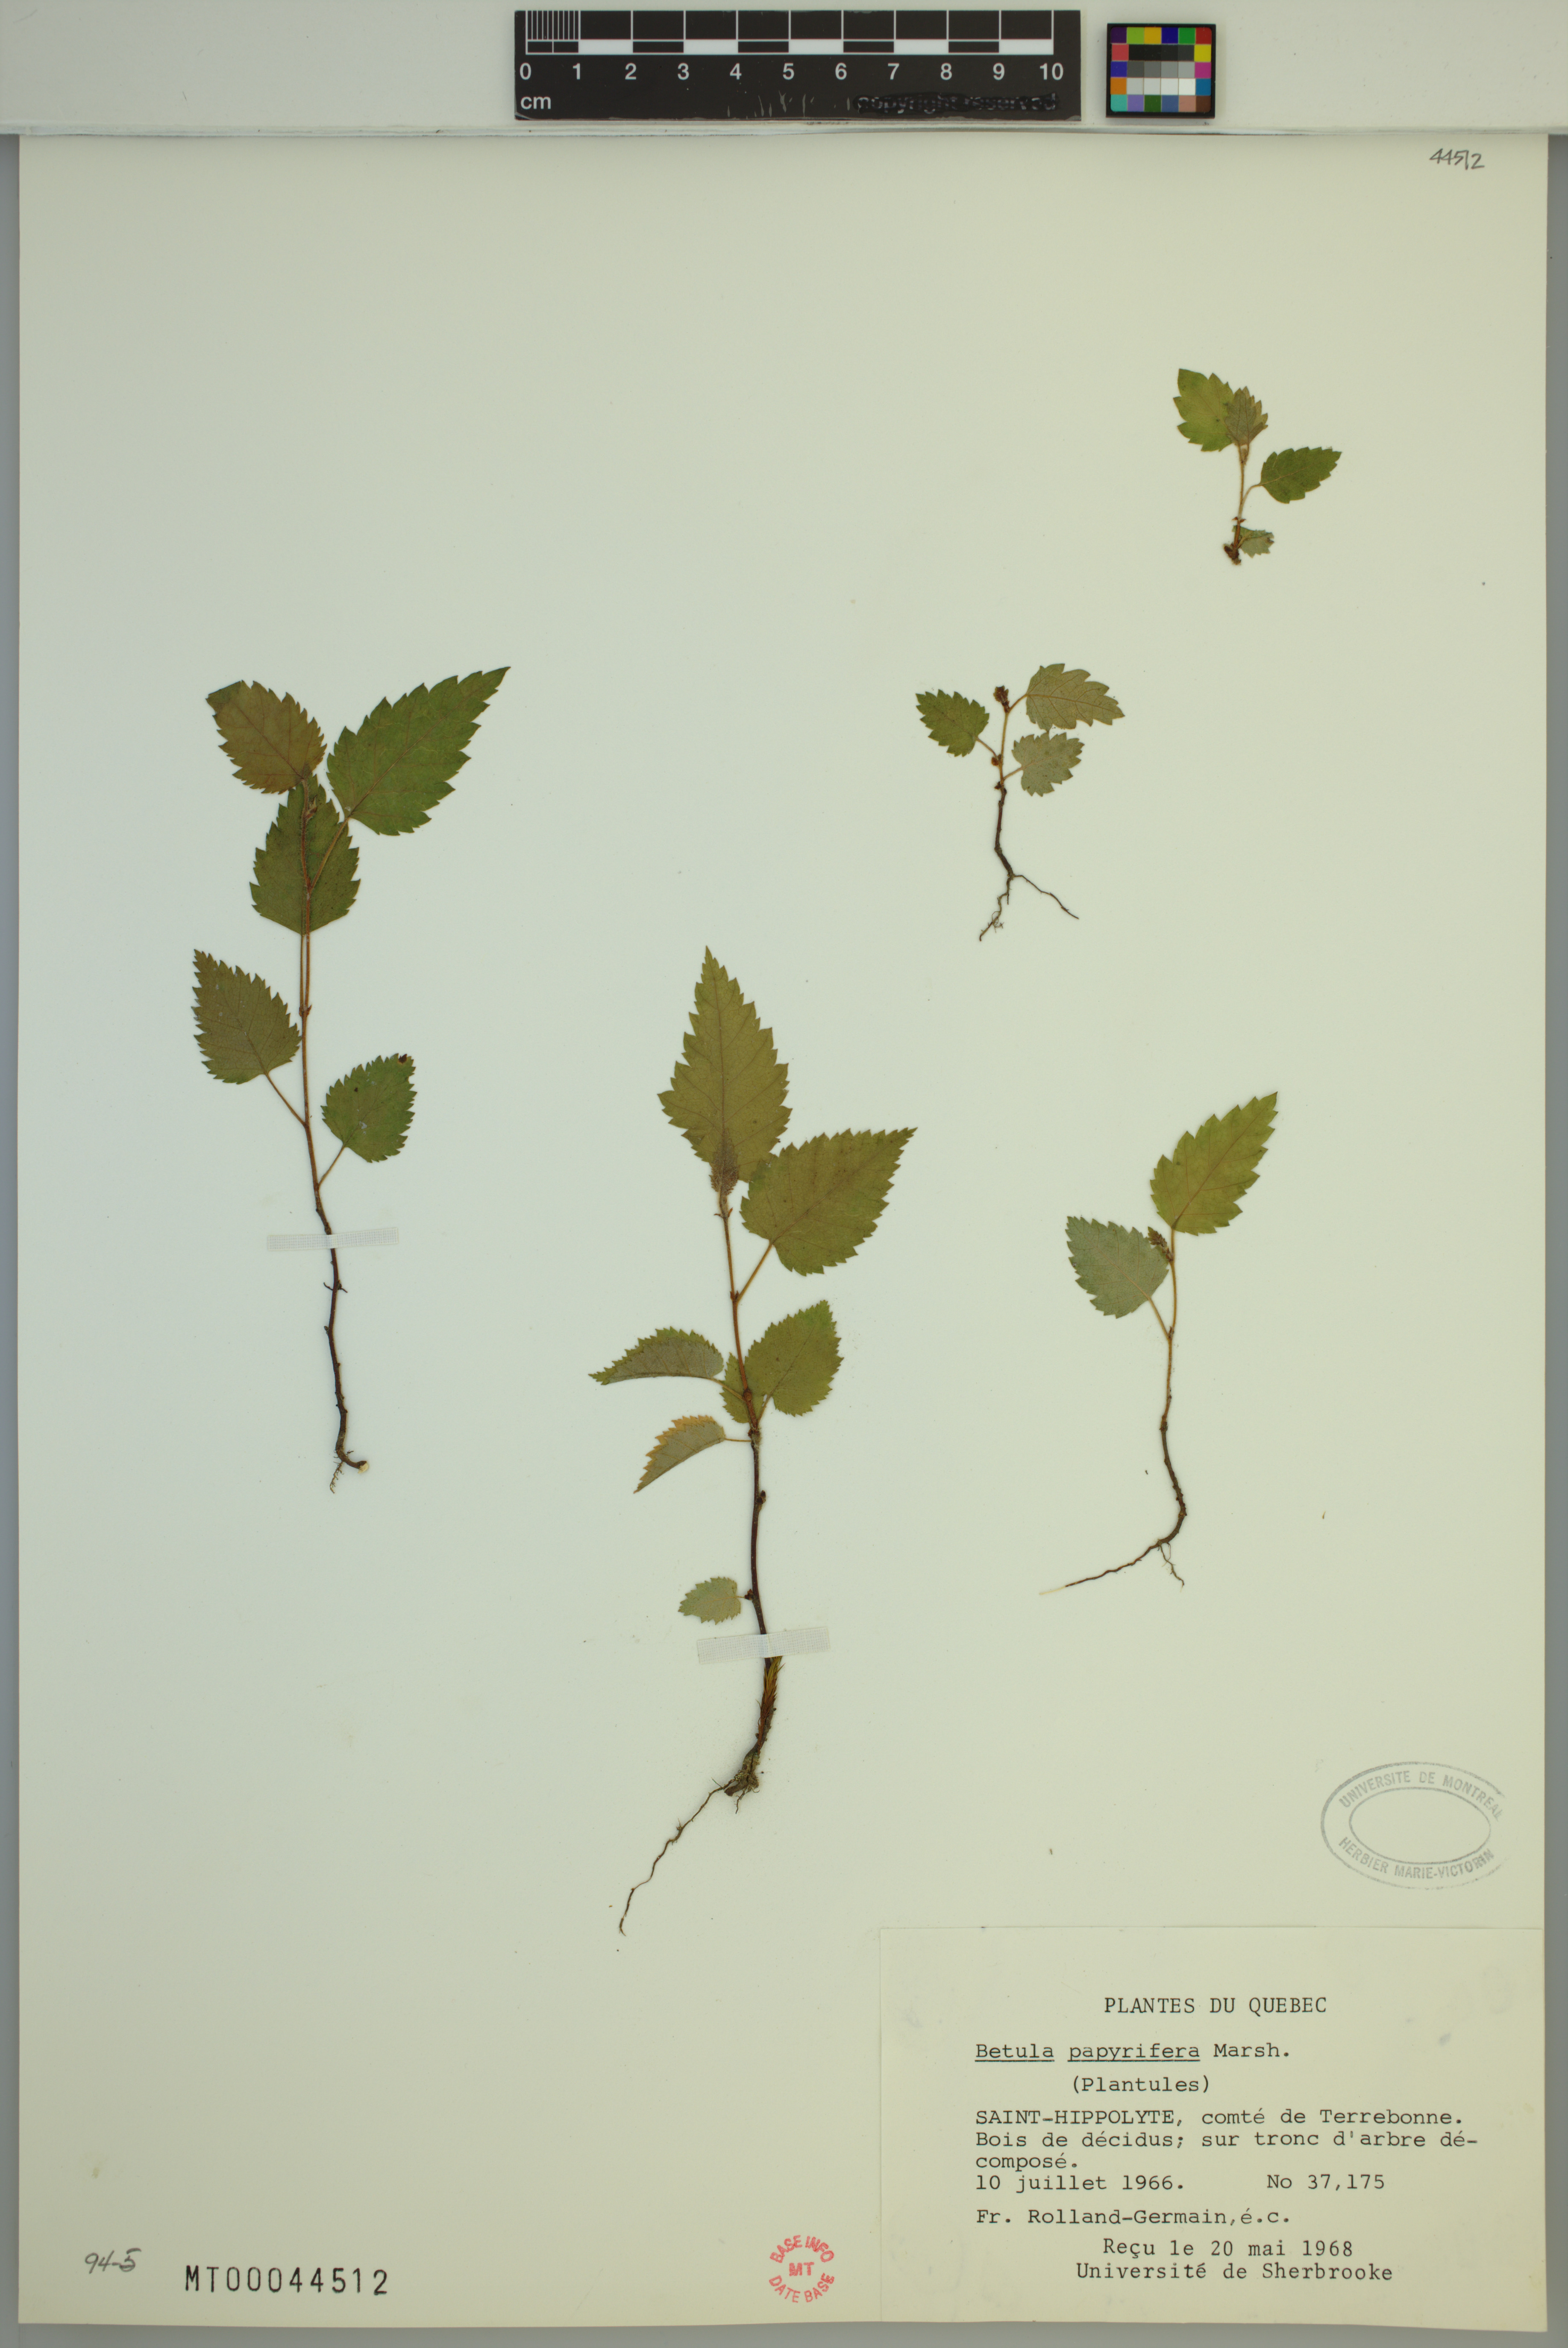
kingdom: Plantae
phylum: Tracheophyta
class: Magnoliopsida
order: Fagales
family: Betulaceae
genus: Betula
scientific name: Betula papyrifera
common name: Paper birch
